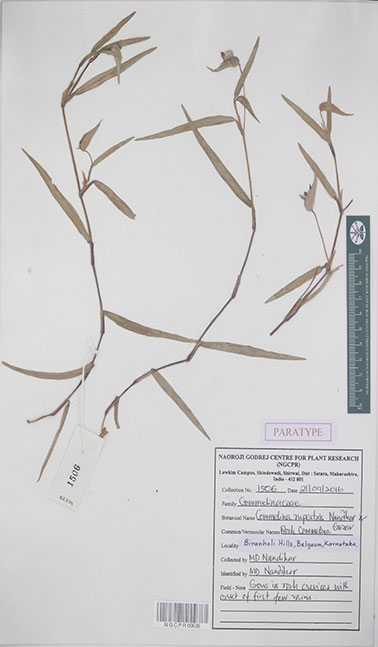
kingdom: Plantae
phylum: Tracheophyta
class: Liliopsida
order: Commelinales
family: Commelinaceae
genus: Commelina
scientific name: Commelina rupestris
